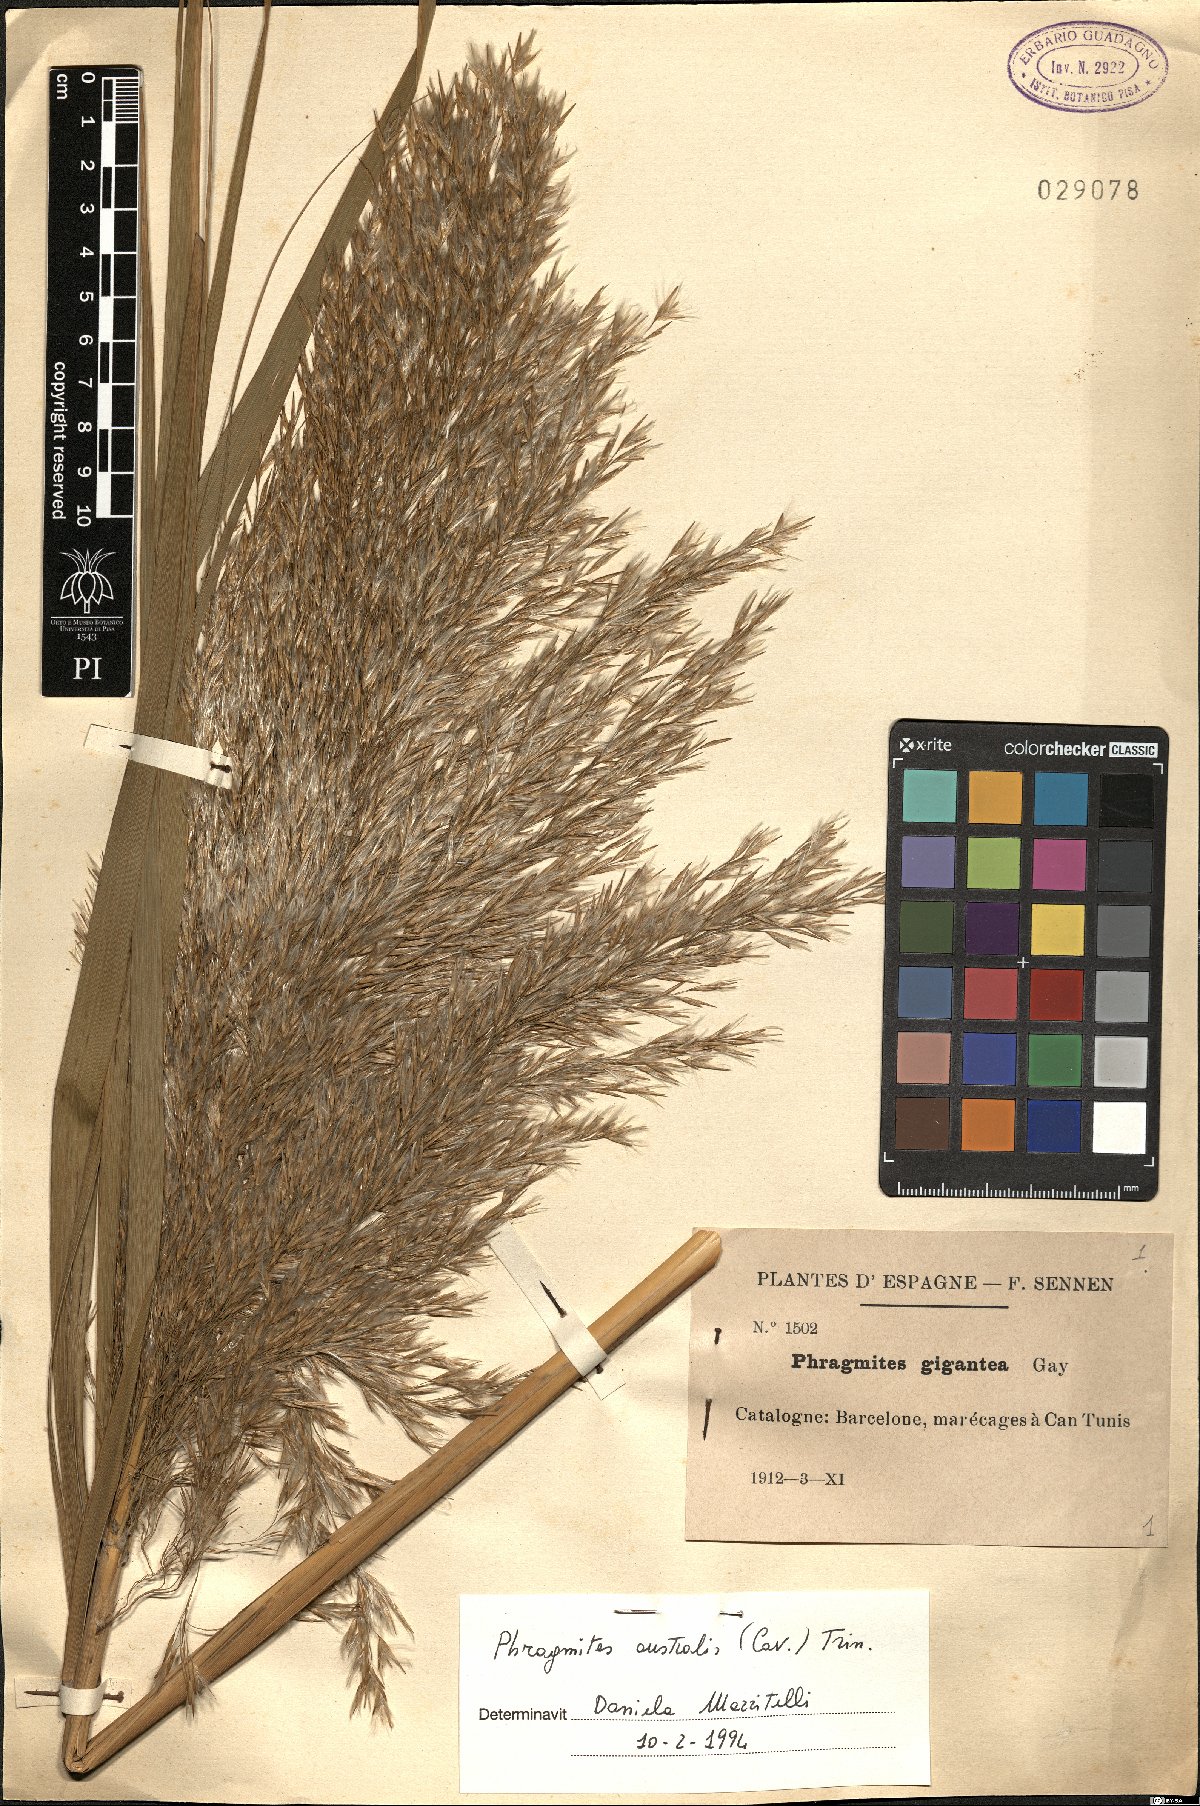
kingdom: Plantae
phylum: Tracheophyta
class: Liliopsida
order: Poales
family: Poaceae
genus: Phragmites
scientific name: Phragmites australis
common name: Common reed
